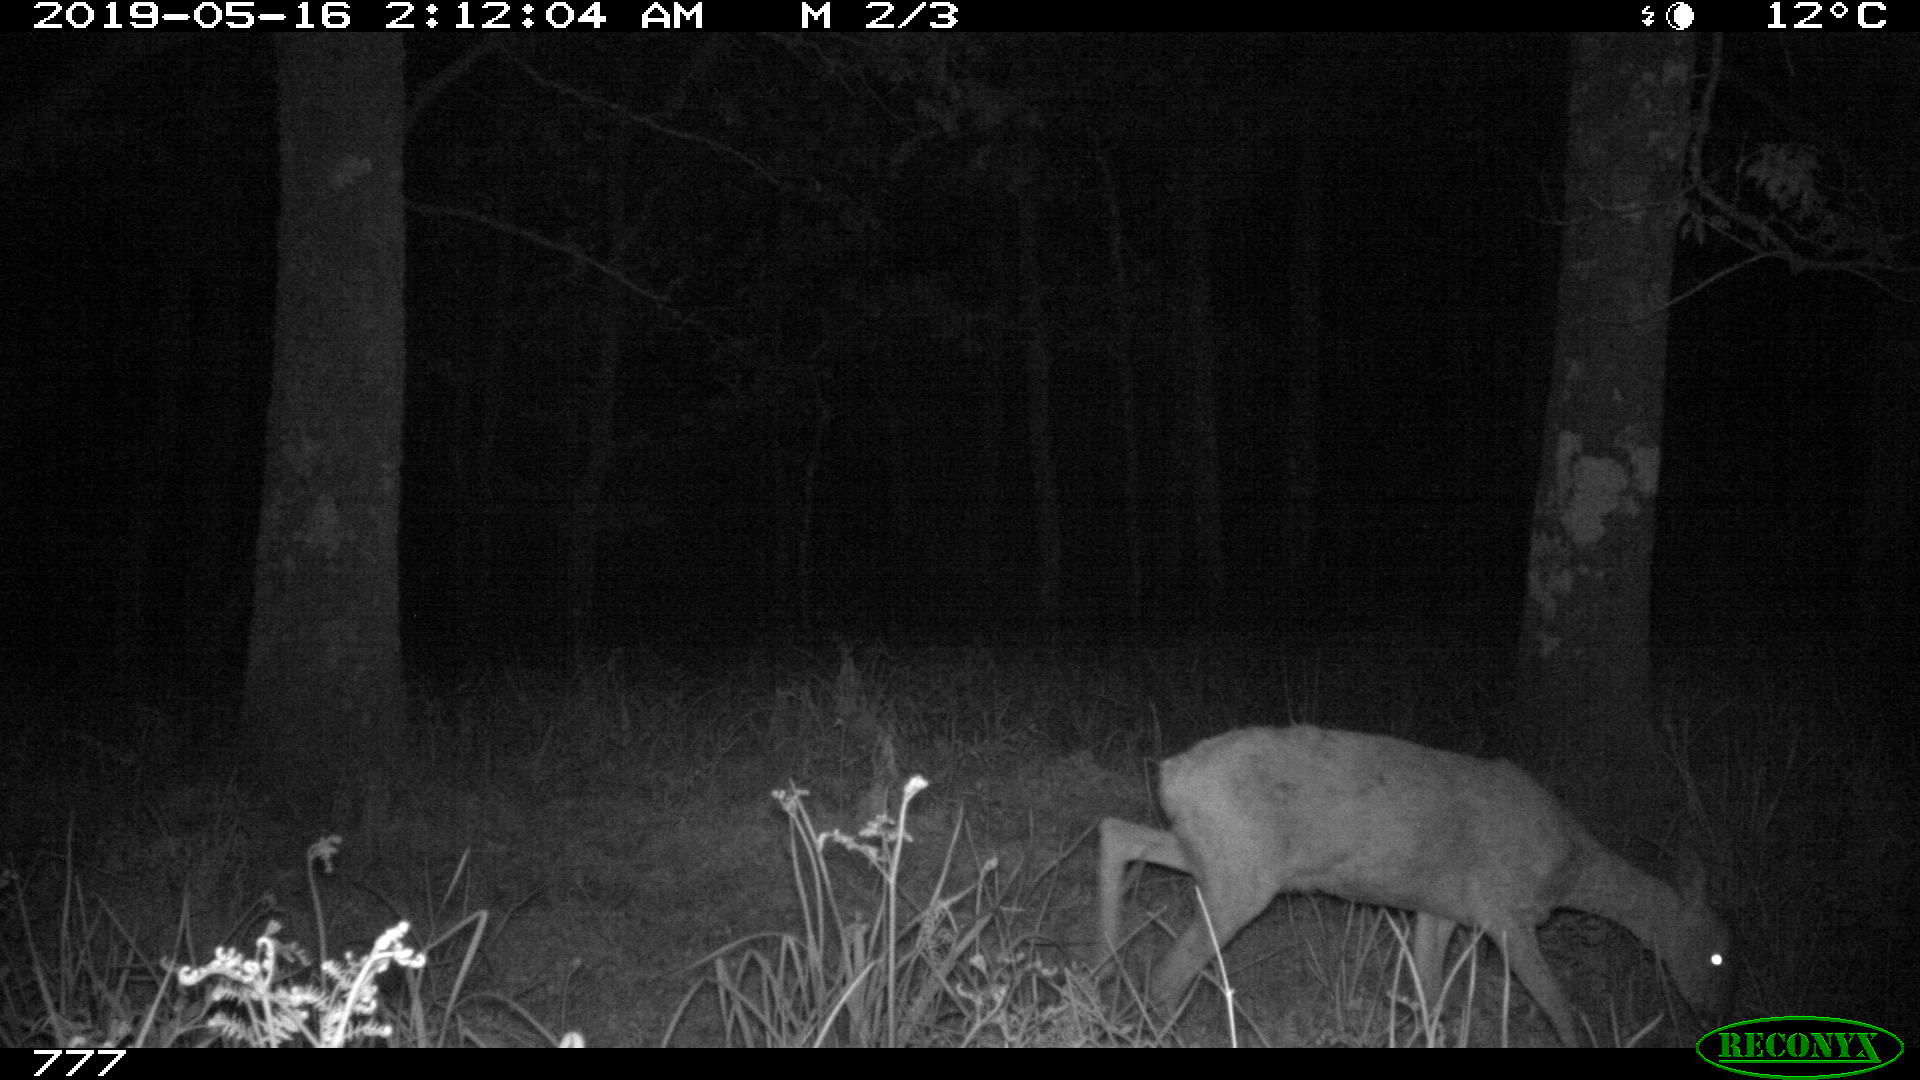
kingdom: Animalia
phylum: Chordata
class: Mammalia
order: Artiodactyla
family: Cervidae
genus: Capreolus
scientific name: Capreolus capreolus
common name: Western roe deer
